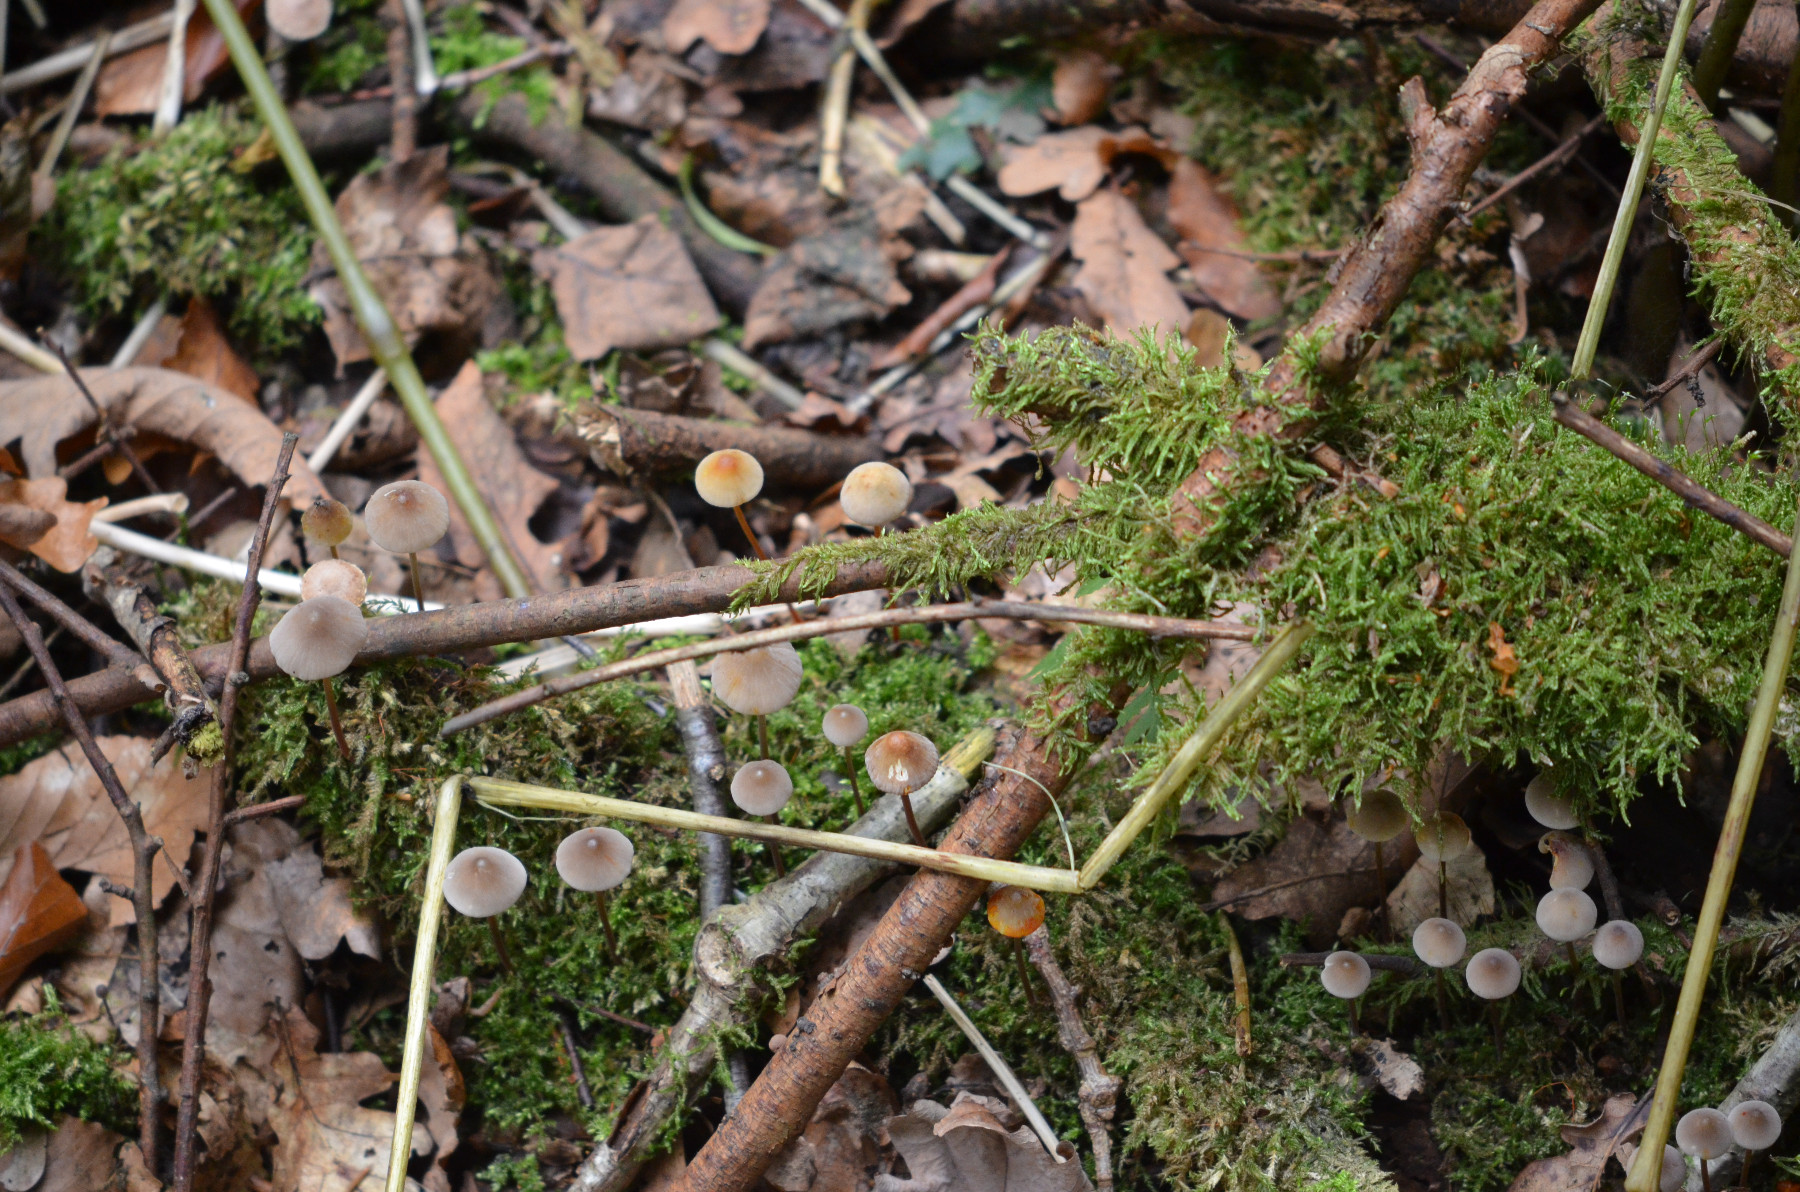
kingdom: Fungi
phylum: Basidiomycota
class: Agaricomycetes
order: Agaricales
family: Mycenaceae
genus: Mycena
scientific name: Mycena crocata
